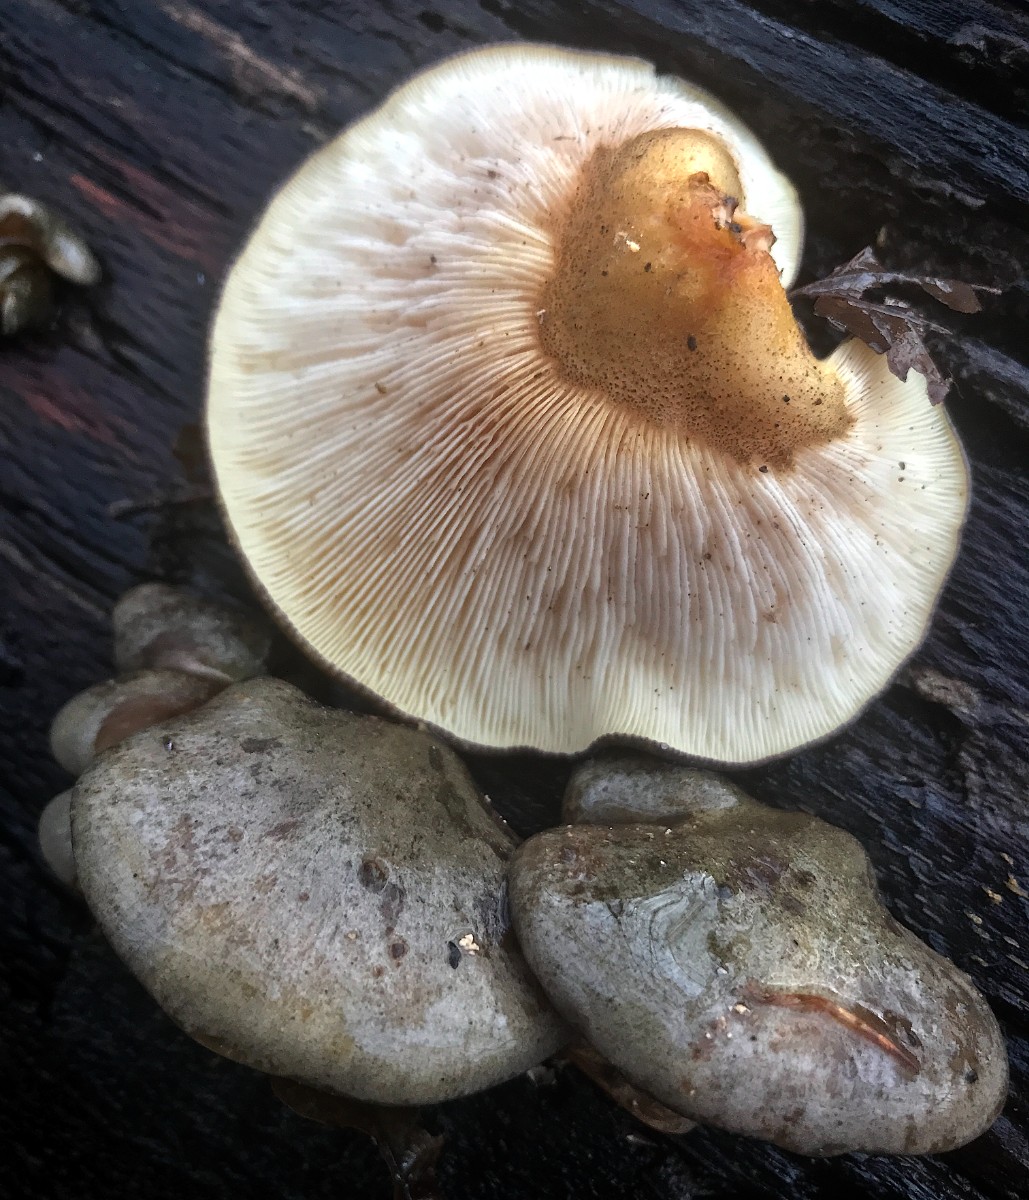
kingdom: Fungi
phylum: Basidiomycota
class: Agaricomycetes
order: Agaricales
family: Sarcomyxaceae
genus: Sarcomyxa
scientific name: Sarcomyxa serotina
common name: gummihat
